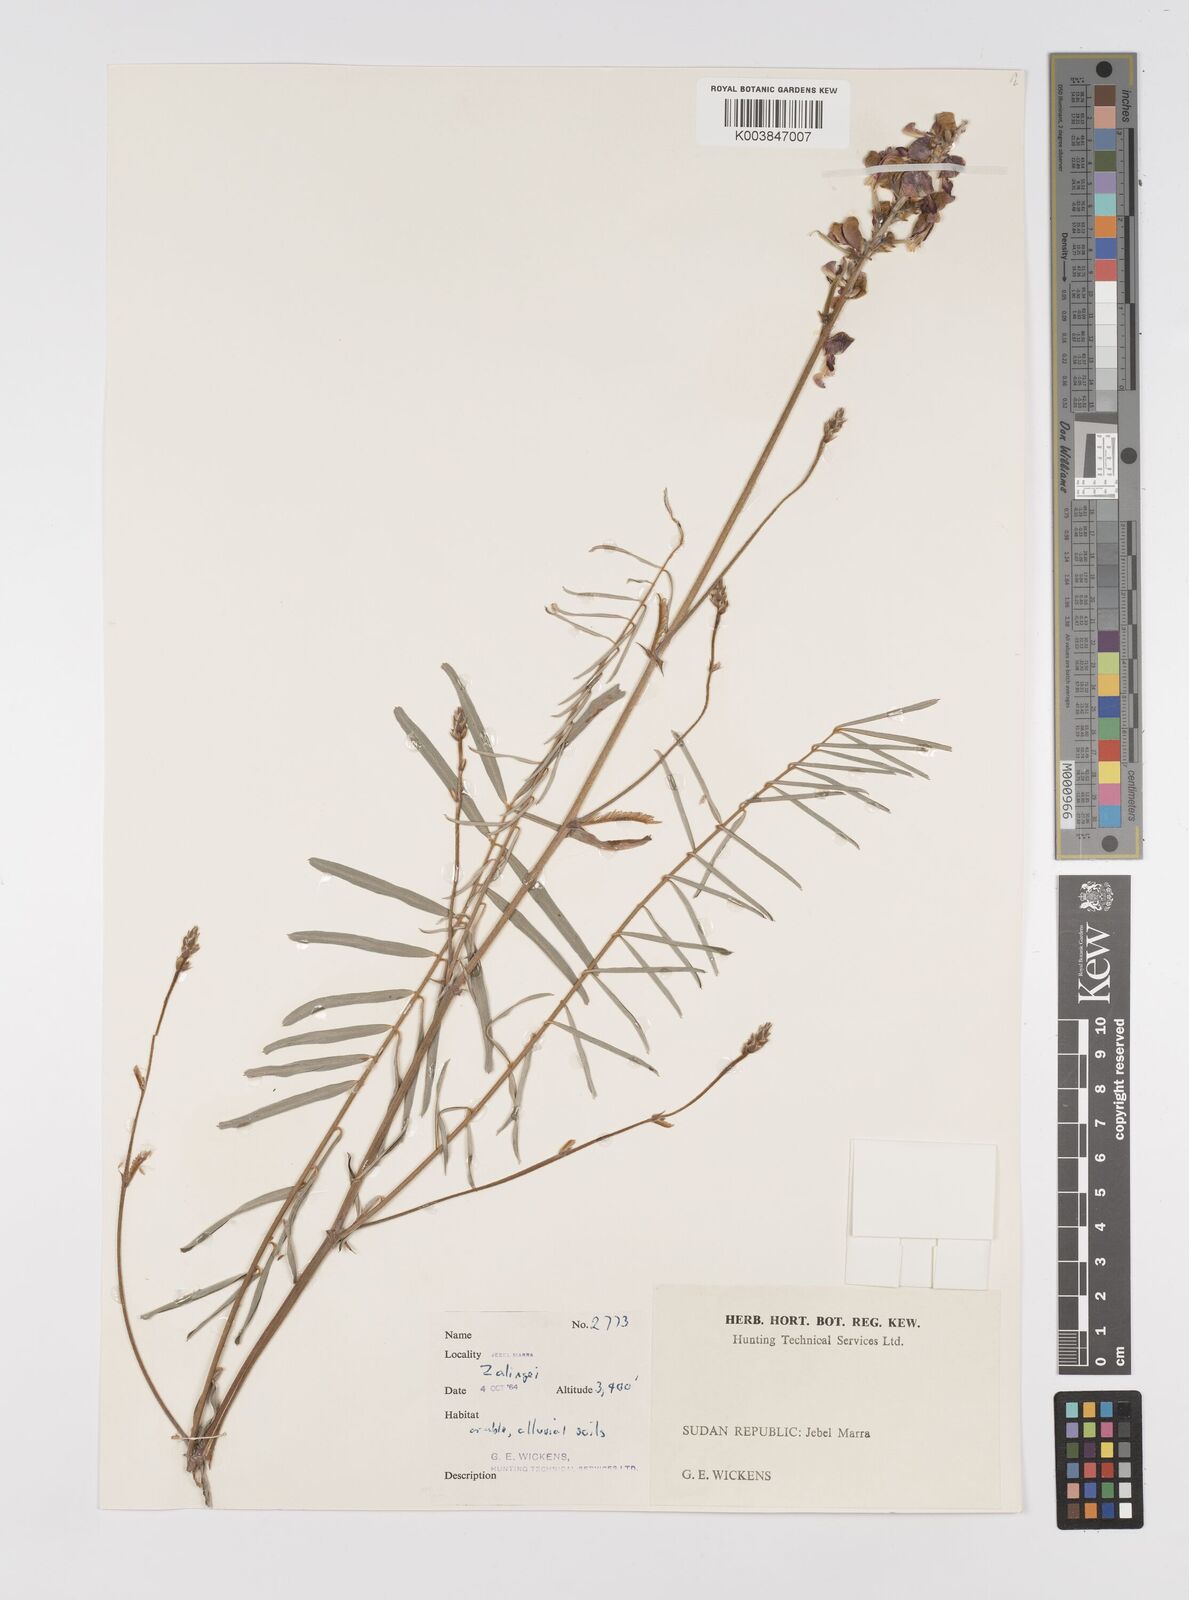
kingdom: Plantae
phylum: Tracheophyta
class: Magnoliopsida
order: Fabales
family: Fabaceae
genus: Tephrosia
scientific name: Tephrosia bracteolata
